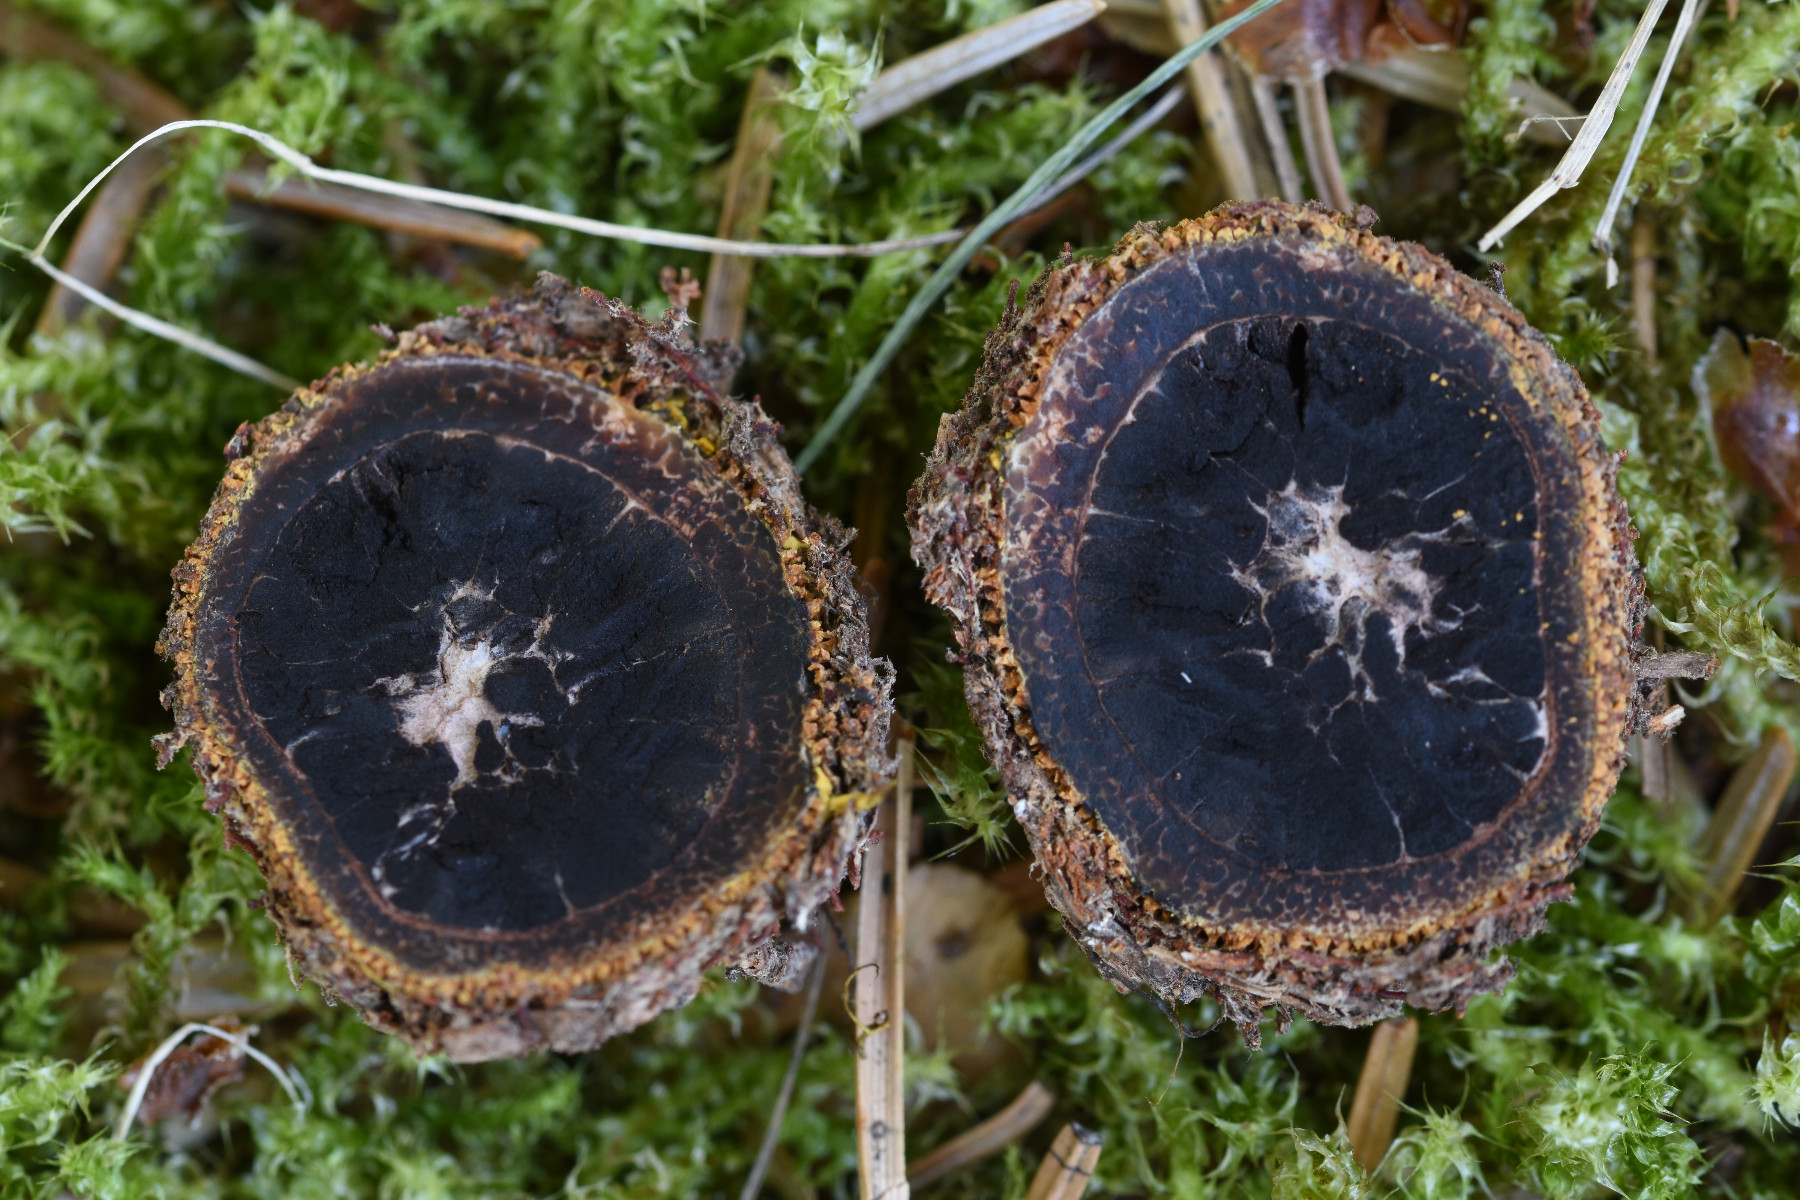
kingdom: Fungi
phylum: Ascomycota
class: Eurotiomycetes
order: Eurotiales
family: Elaphomycetaceae
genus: Elaphomyces
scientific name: Elaphomyces muricatus
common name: vortet hjortetrøffel
